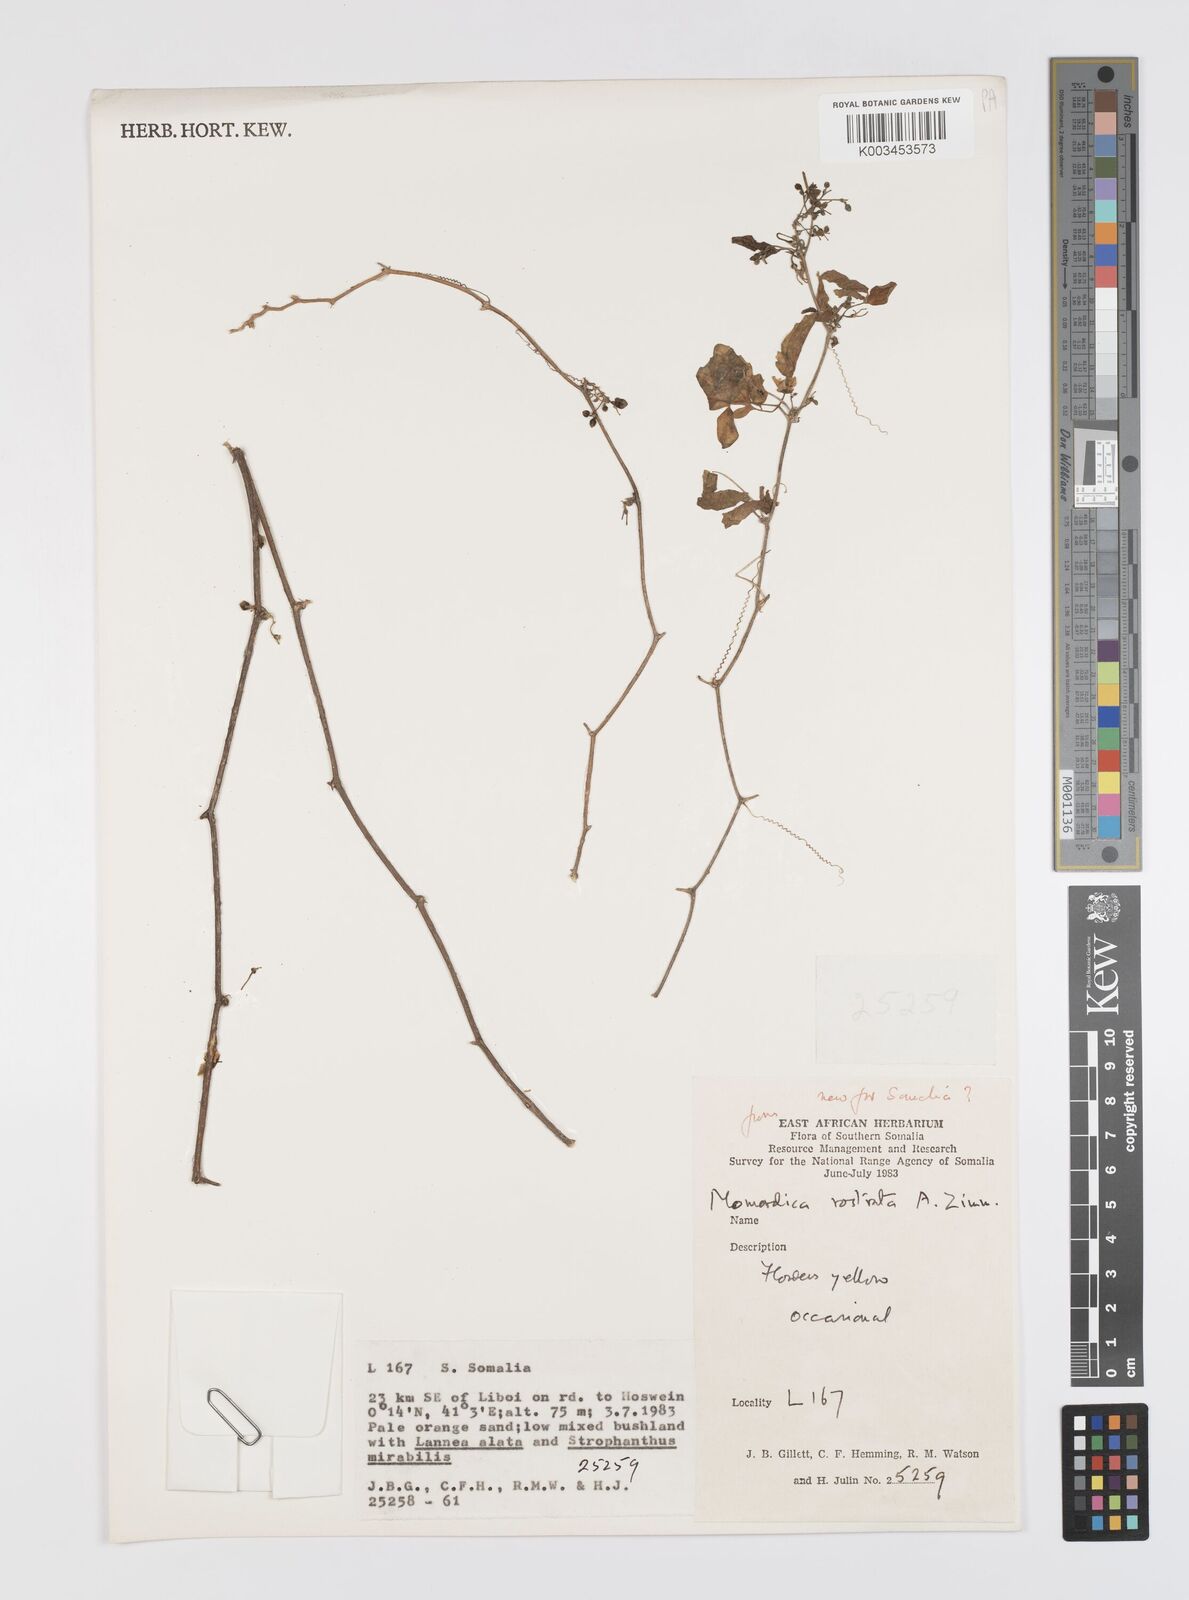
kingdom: Plantae
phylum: Tracheophyta
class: Magnoliopsida
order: Cucurbitales
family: Cucurbitaceae
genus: Momordica
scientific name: Momordica rostrata
